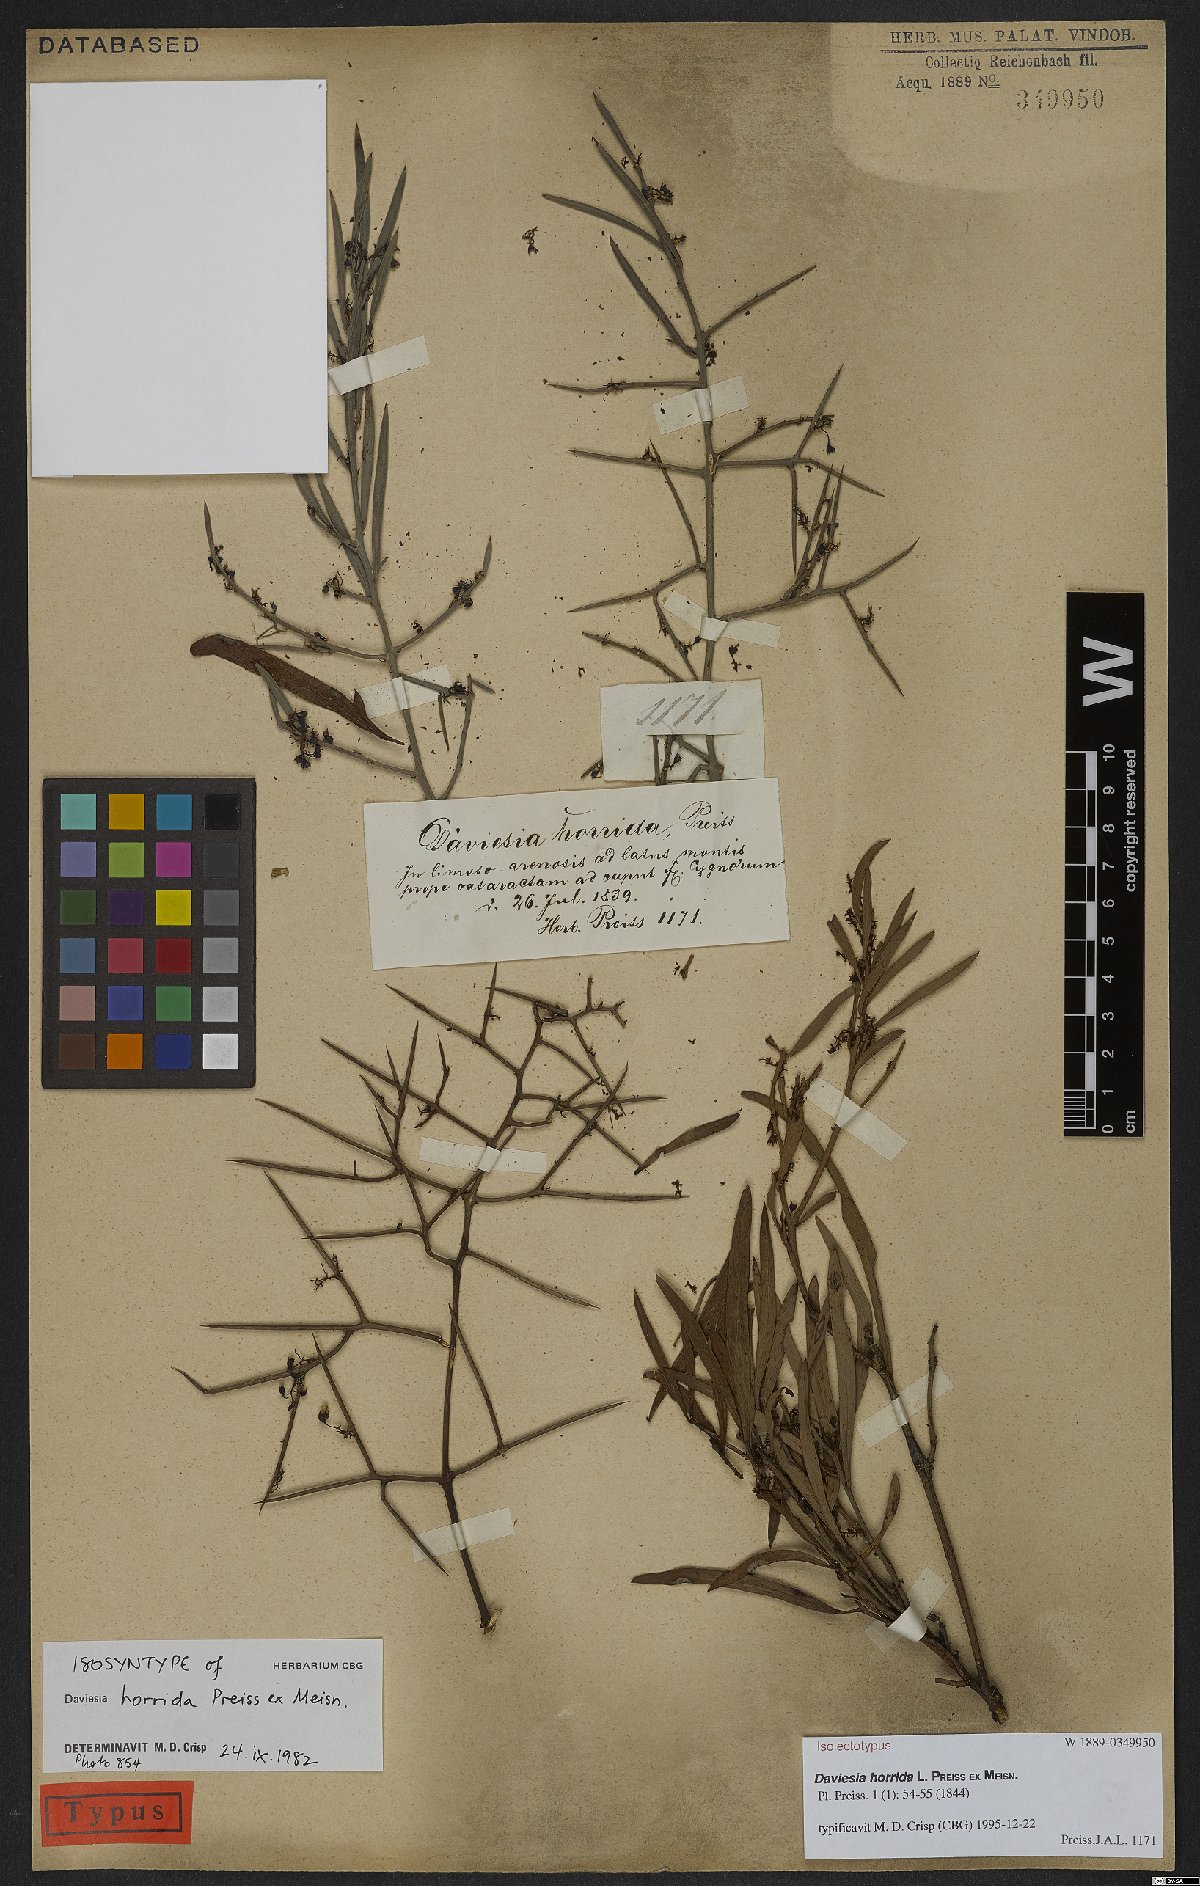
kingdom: Plantae
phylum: Tracheophyta
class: Magnoliopsida
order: Fabales
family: Fabaceae
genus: Daviesia
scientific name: Daviesia horrida
